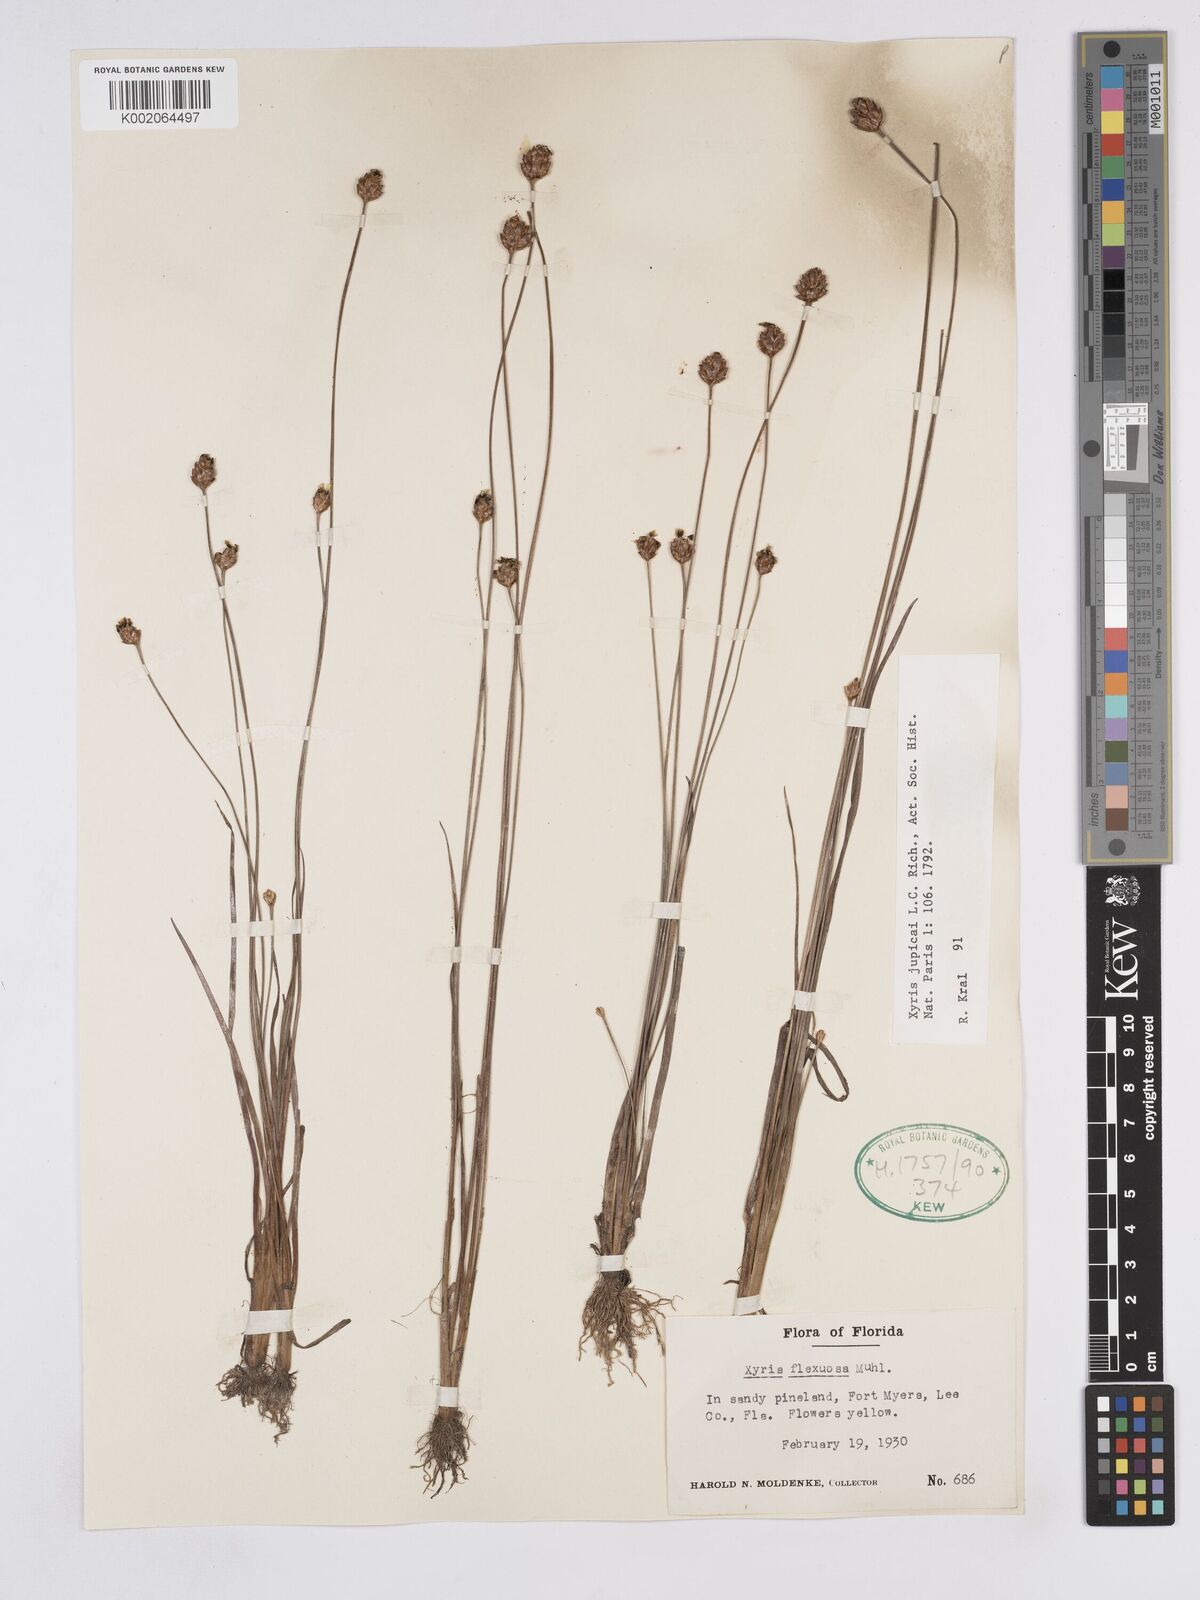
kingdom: Plantae
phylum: Tracheophyta
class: Liliopsida
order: Poales
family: Xyridaceae
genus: Xyris
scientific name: Xyris jupicai
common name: Richard's yelloweyed grass
